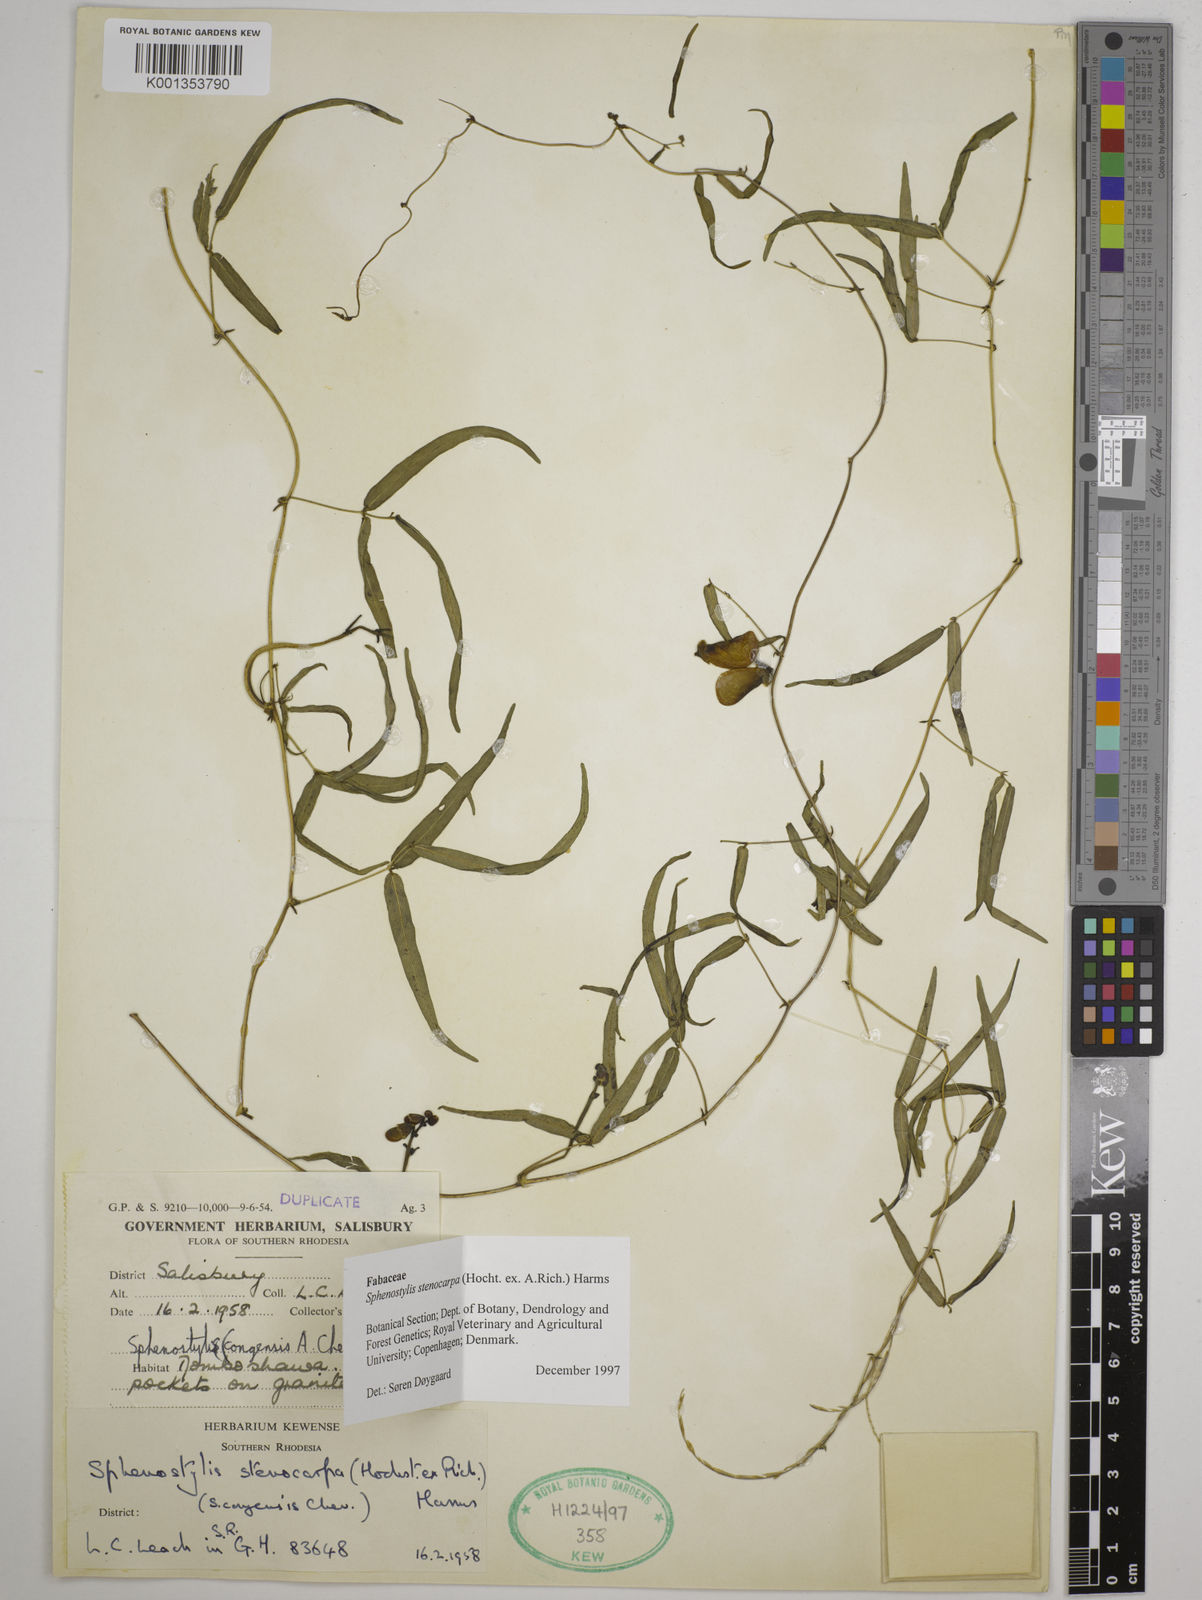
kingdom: Plantae
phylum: Tracheophyta
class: Magnoliopsida
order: Fabales
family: Fabaceae
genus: Sphenostylis
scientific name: Sphenostylis stenocarpa
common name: Yam-pea
